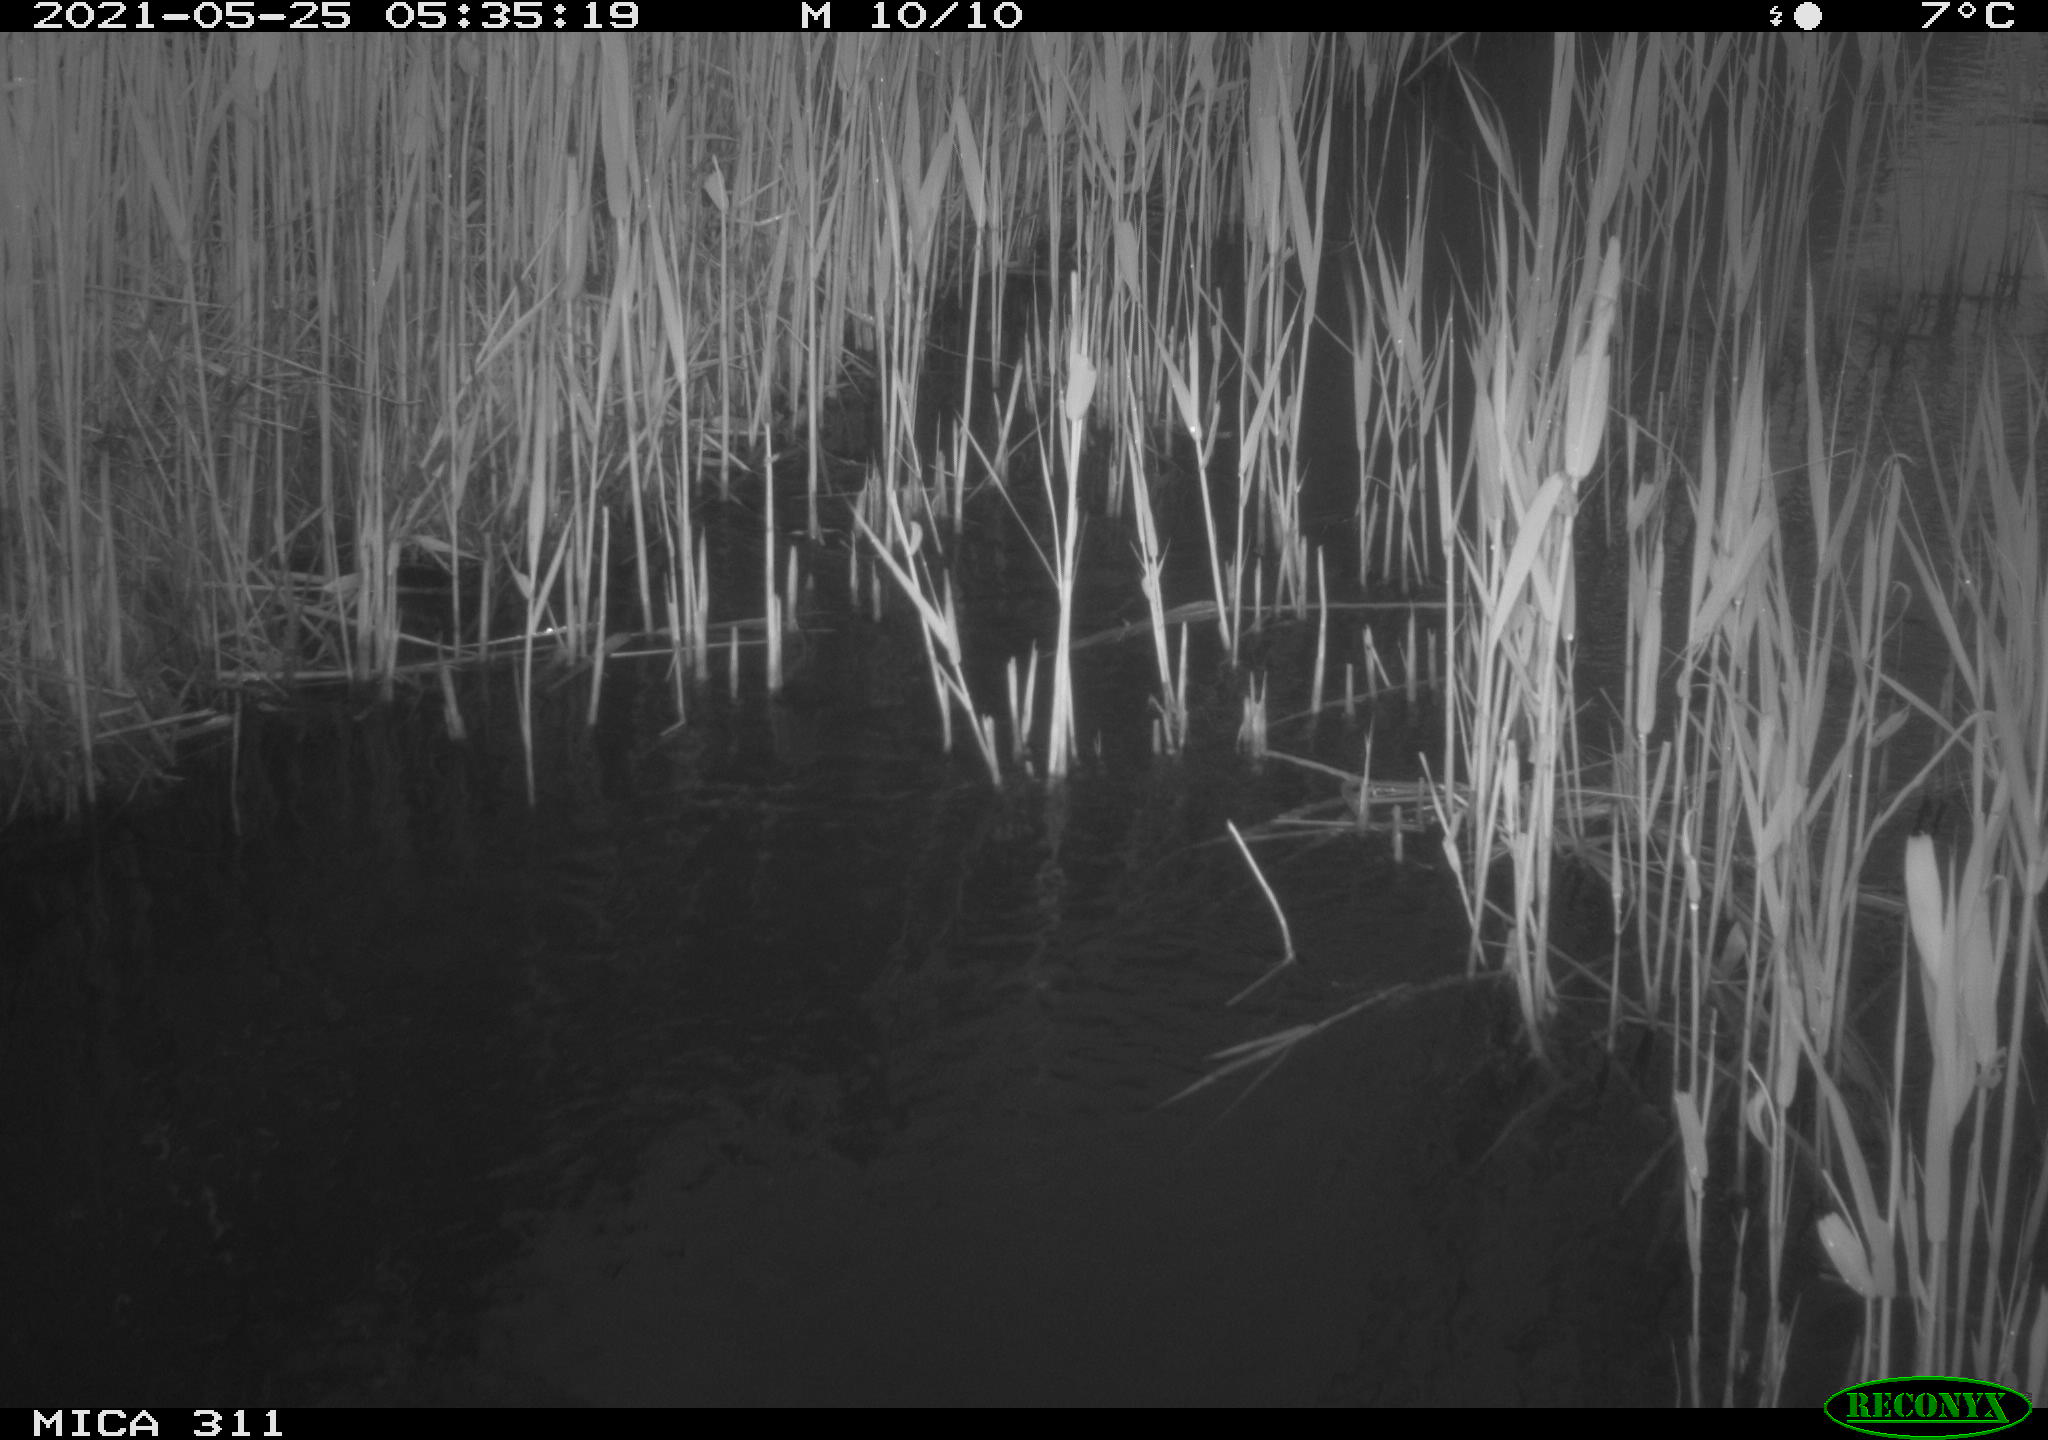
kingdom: Animalia
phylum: Chordata
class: Aves
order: Anseriformes
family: Anatidae
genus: Anas
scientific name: Anas platyrhynchos
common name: Mallard
